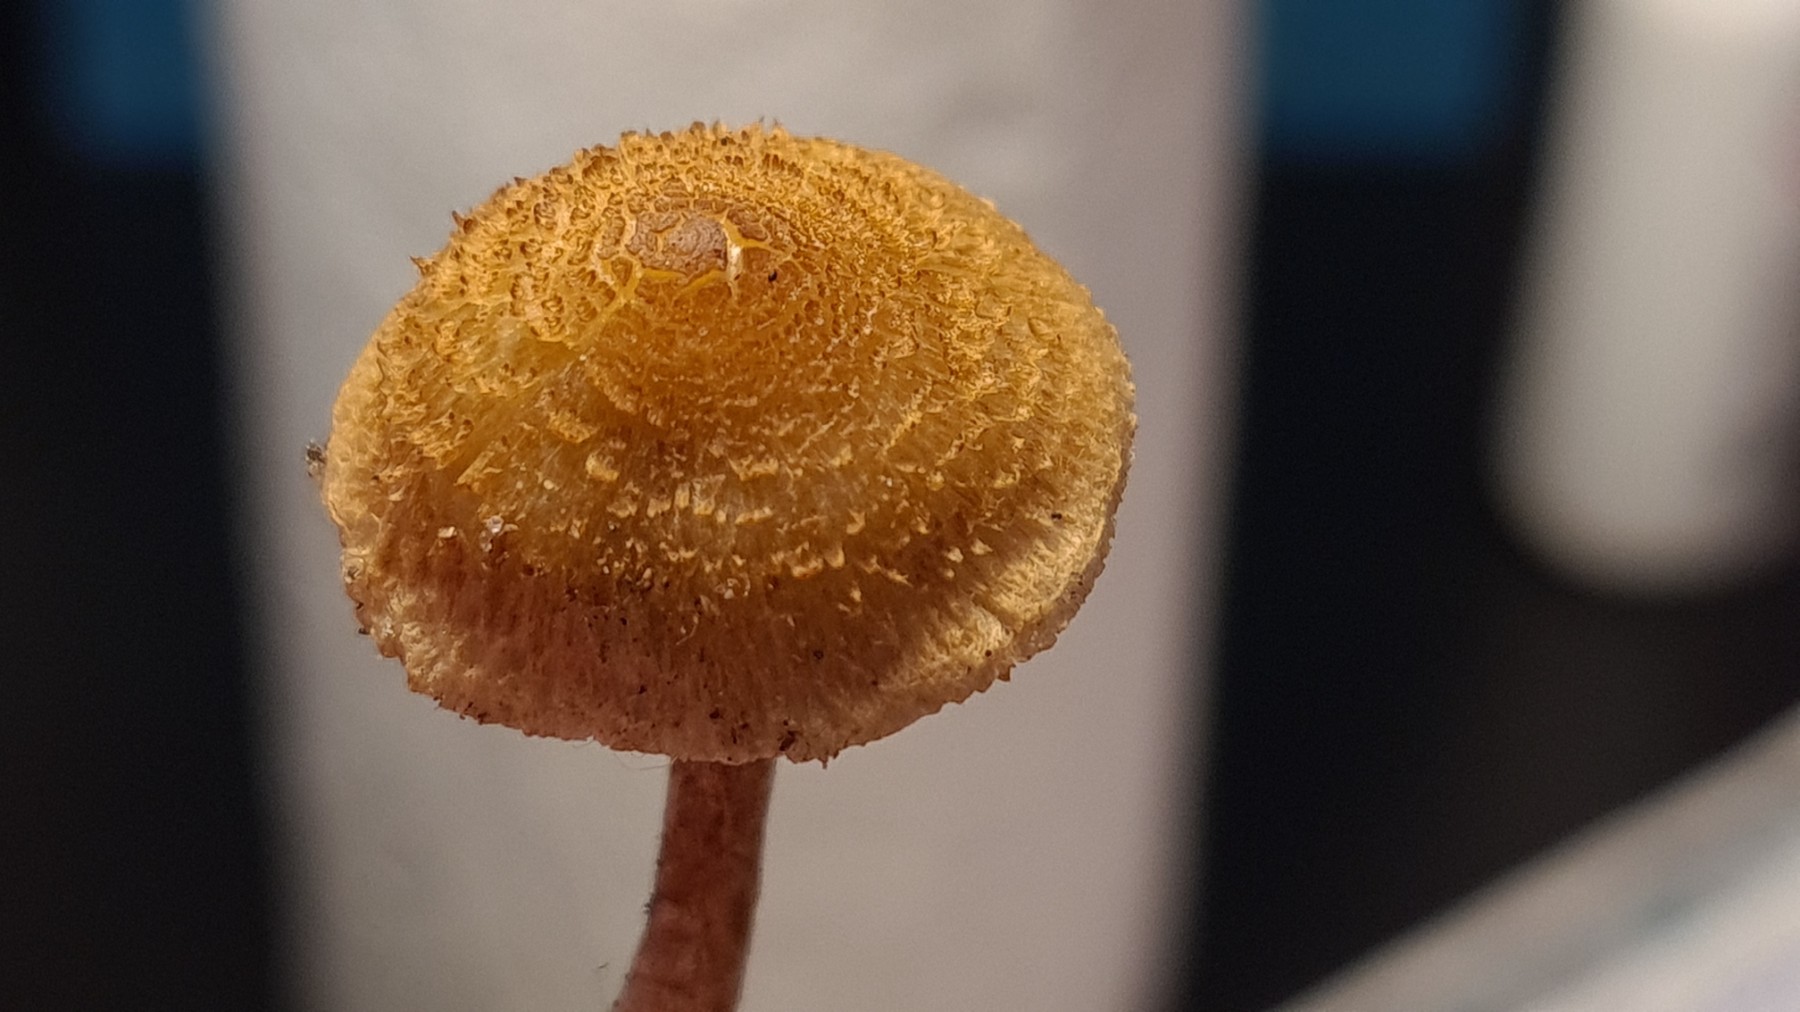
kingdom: Fungi
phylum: Basidiomycota
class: Agaricomycetes
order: Agaricales
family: Inocybaceae
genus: Inocybe
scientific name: Inocybe
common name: trævlhat
